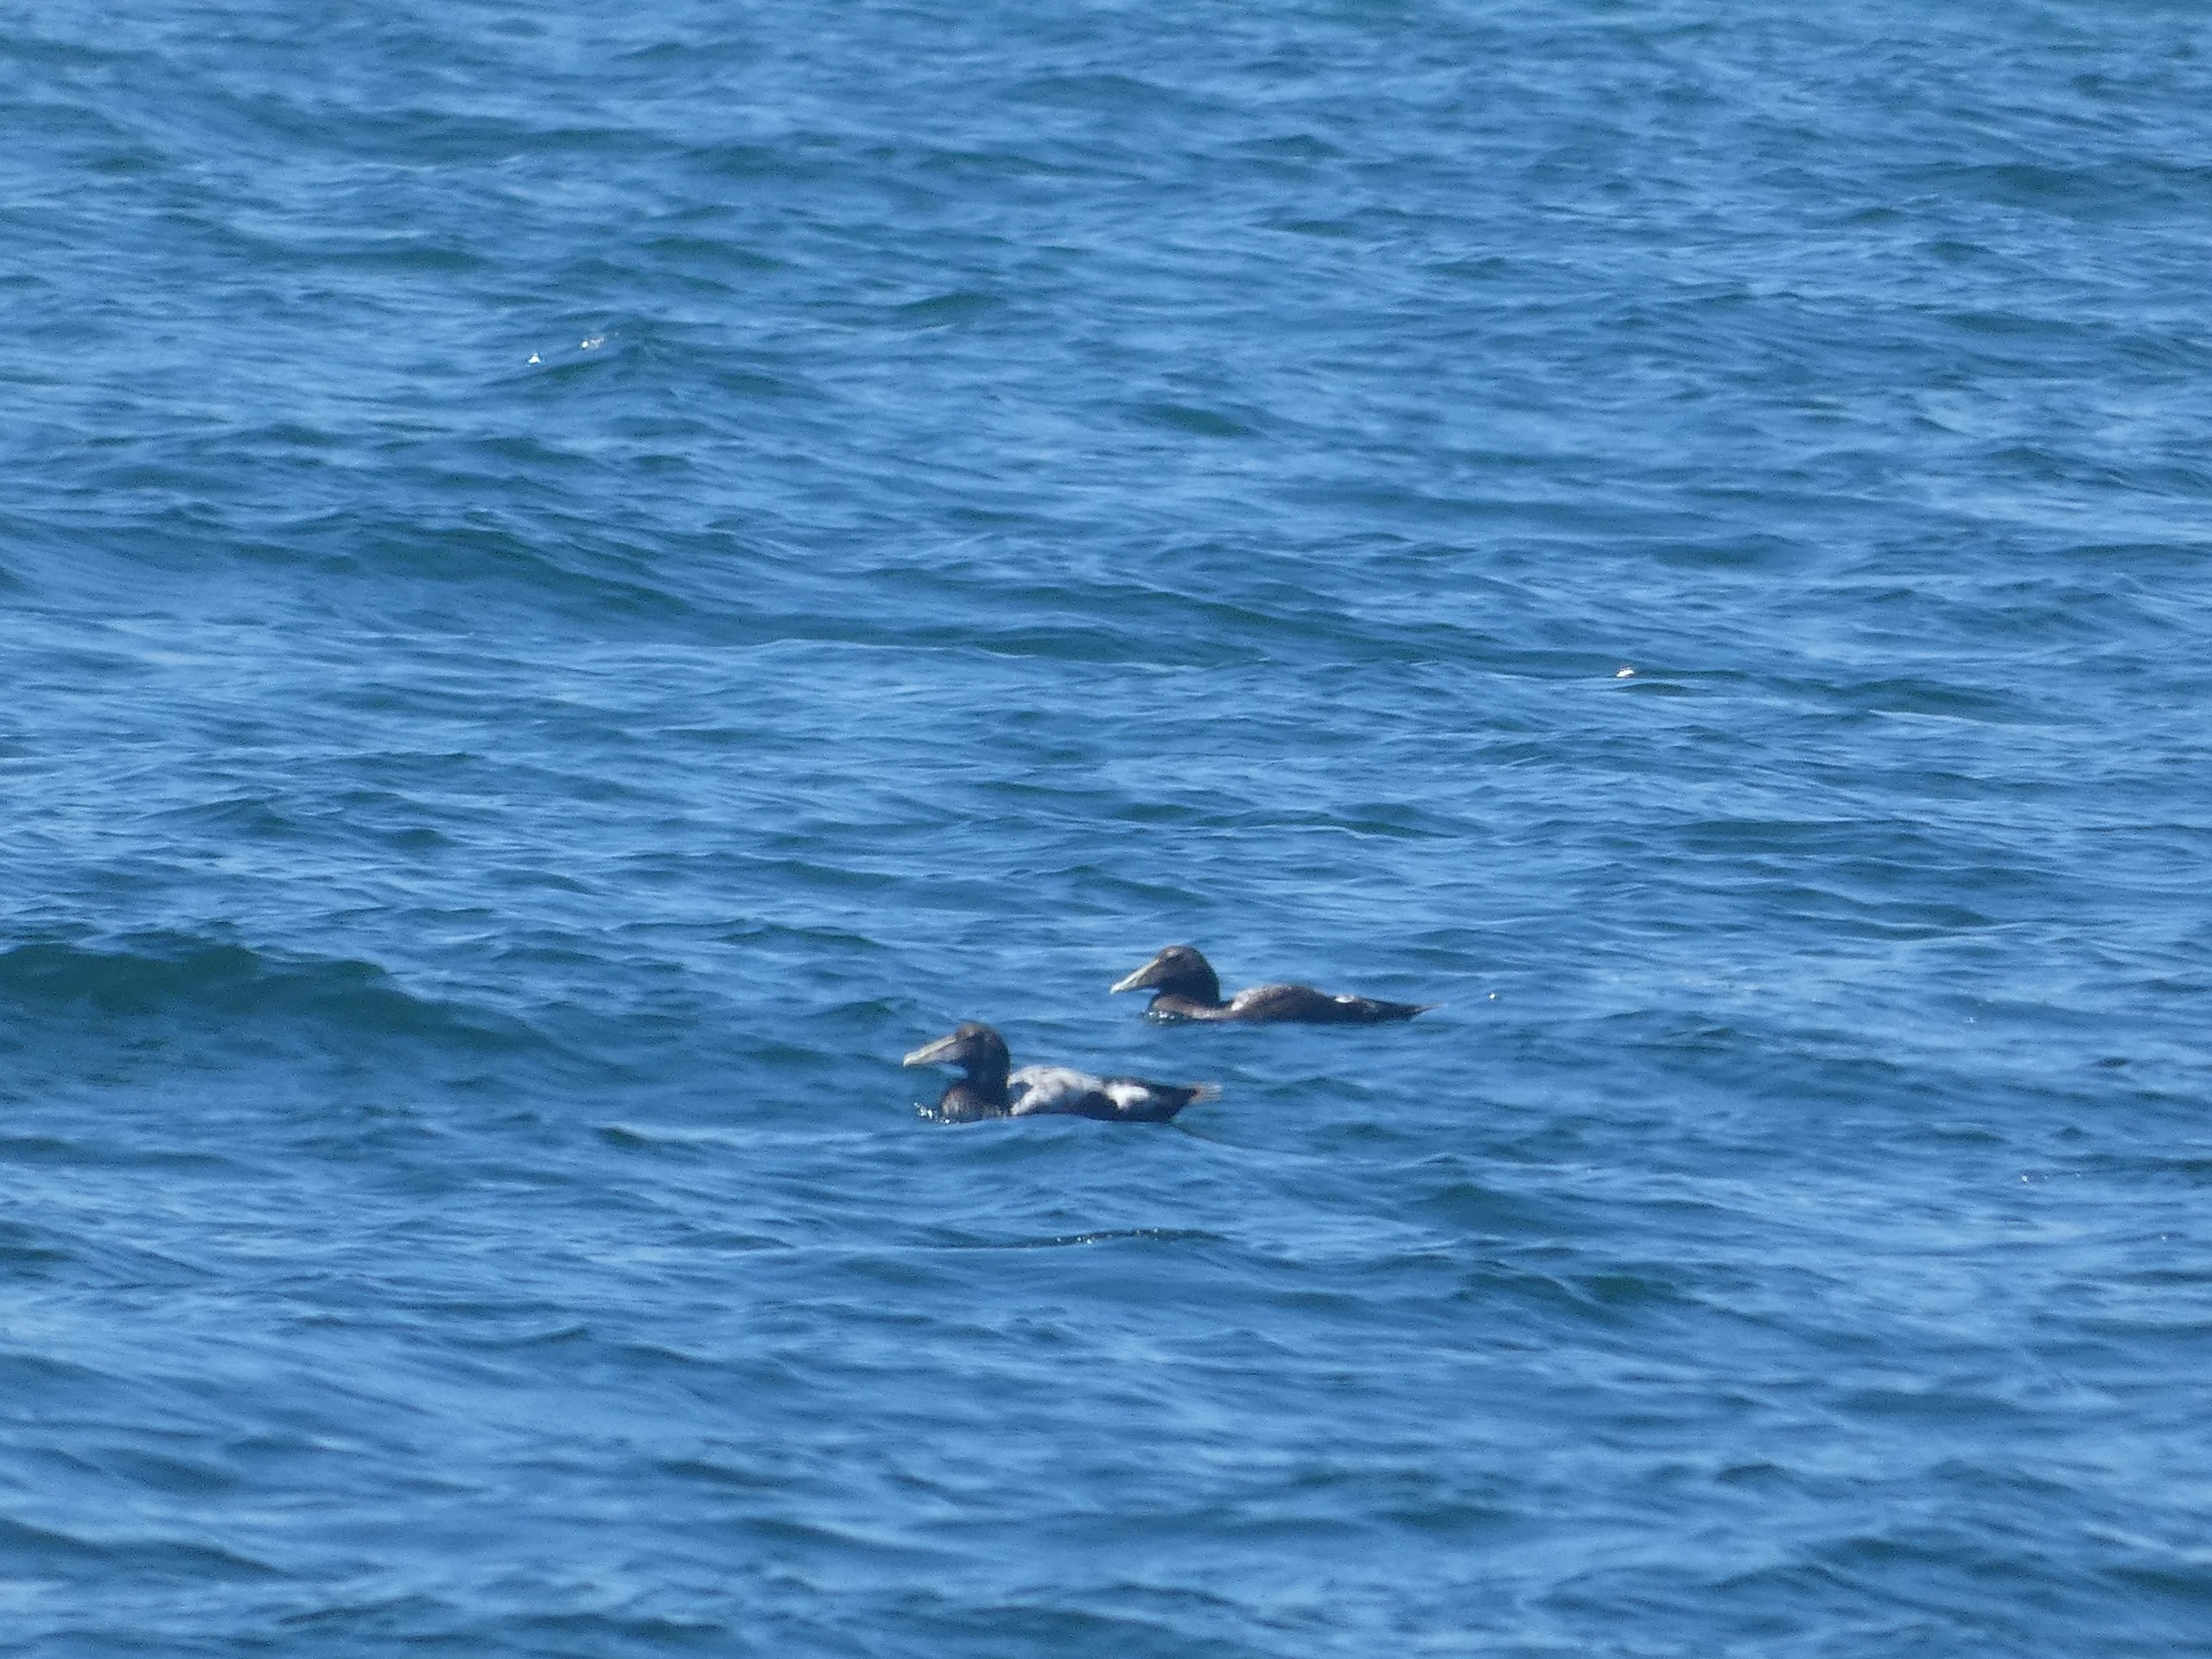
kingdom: Animalia
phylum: Chordata
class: Aves
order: Anseriformes
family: Anatidae
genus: Somateria
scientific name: Somateria mollissima
